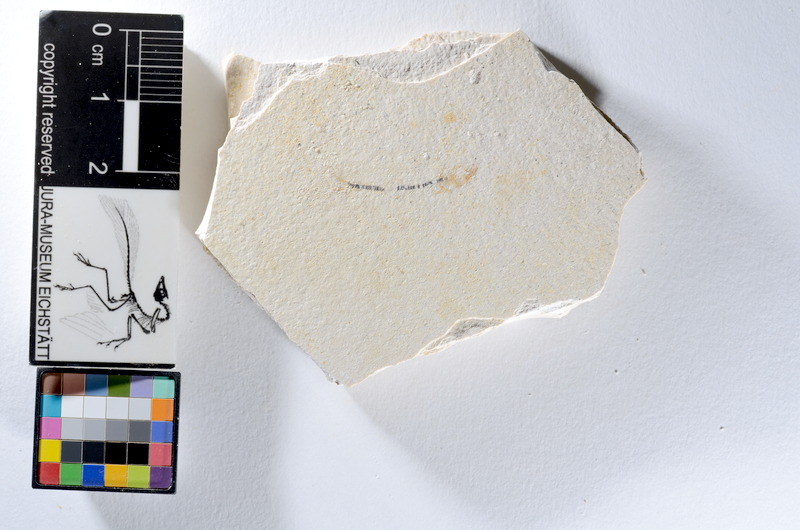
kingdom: Animalia
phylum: Chordata
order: Salmoniformes
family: Orthogonikleithridae
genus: Orthogonikleithrus
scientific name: Orthogonikleithrus hoelli
